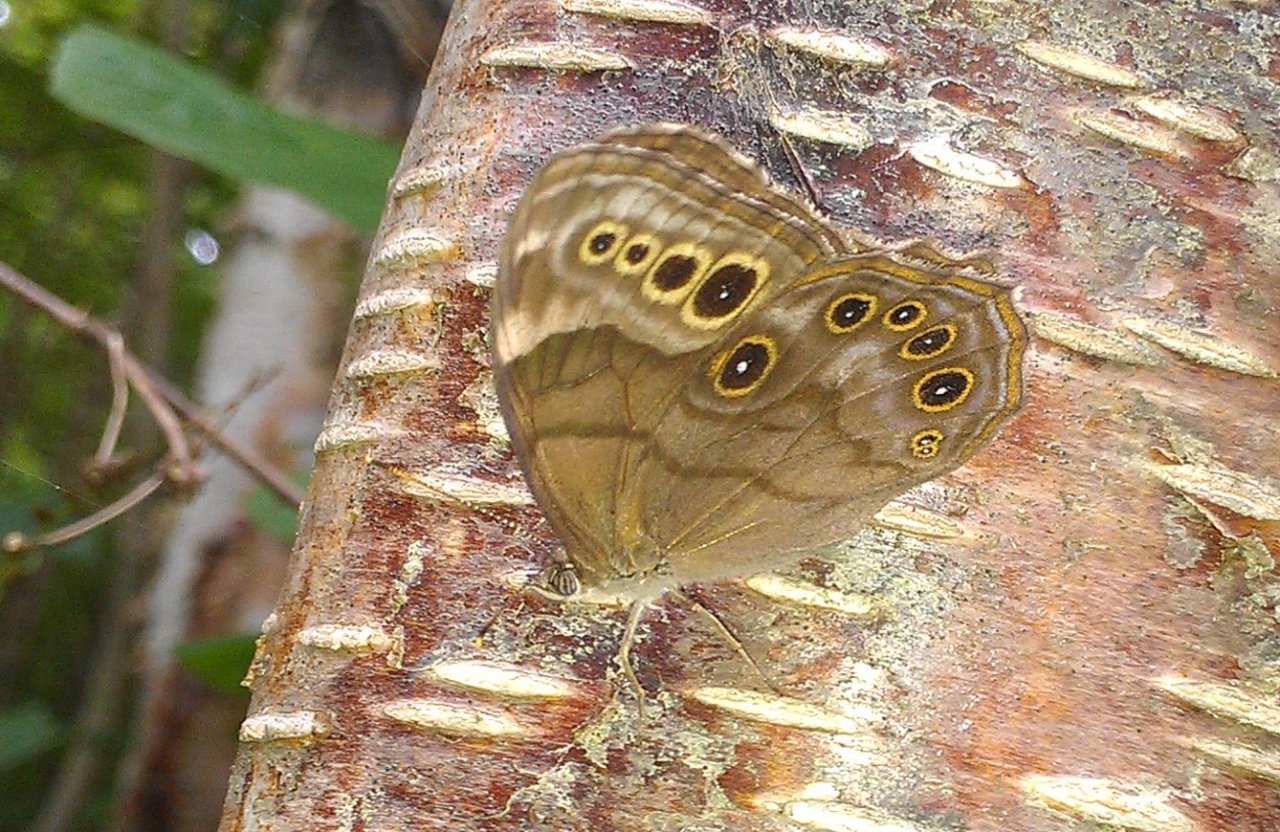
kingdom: Animalia
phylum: Arthropoda
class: Insecta
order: Lepidoptera
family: Nymphalidae
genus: Lethe
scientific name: Lethe anthedon
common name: Northern Pearly-Eye
